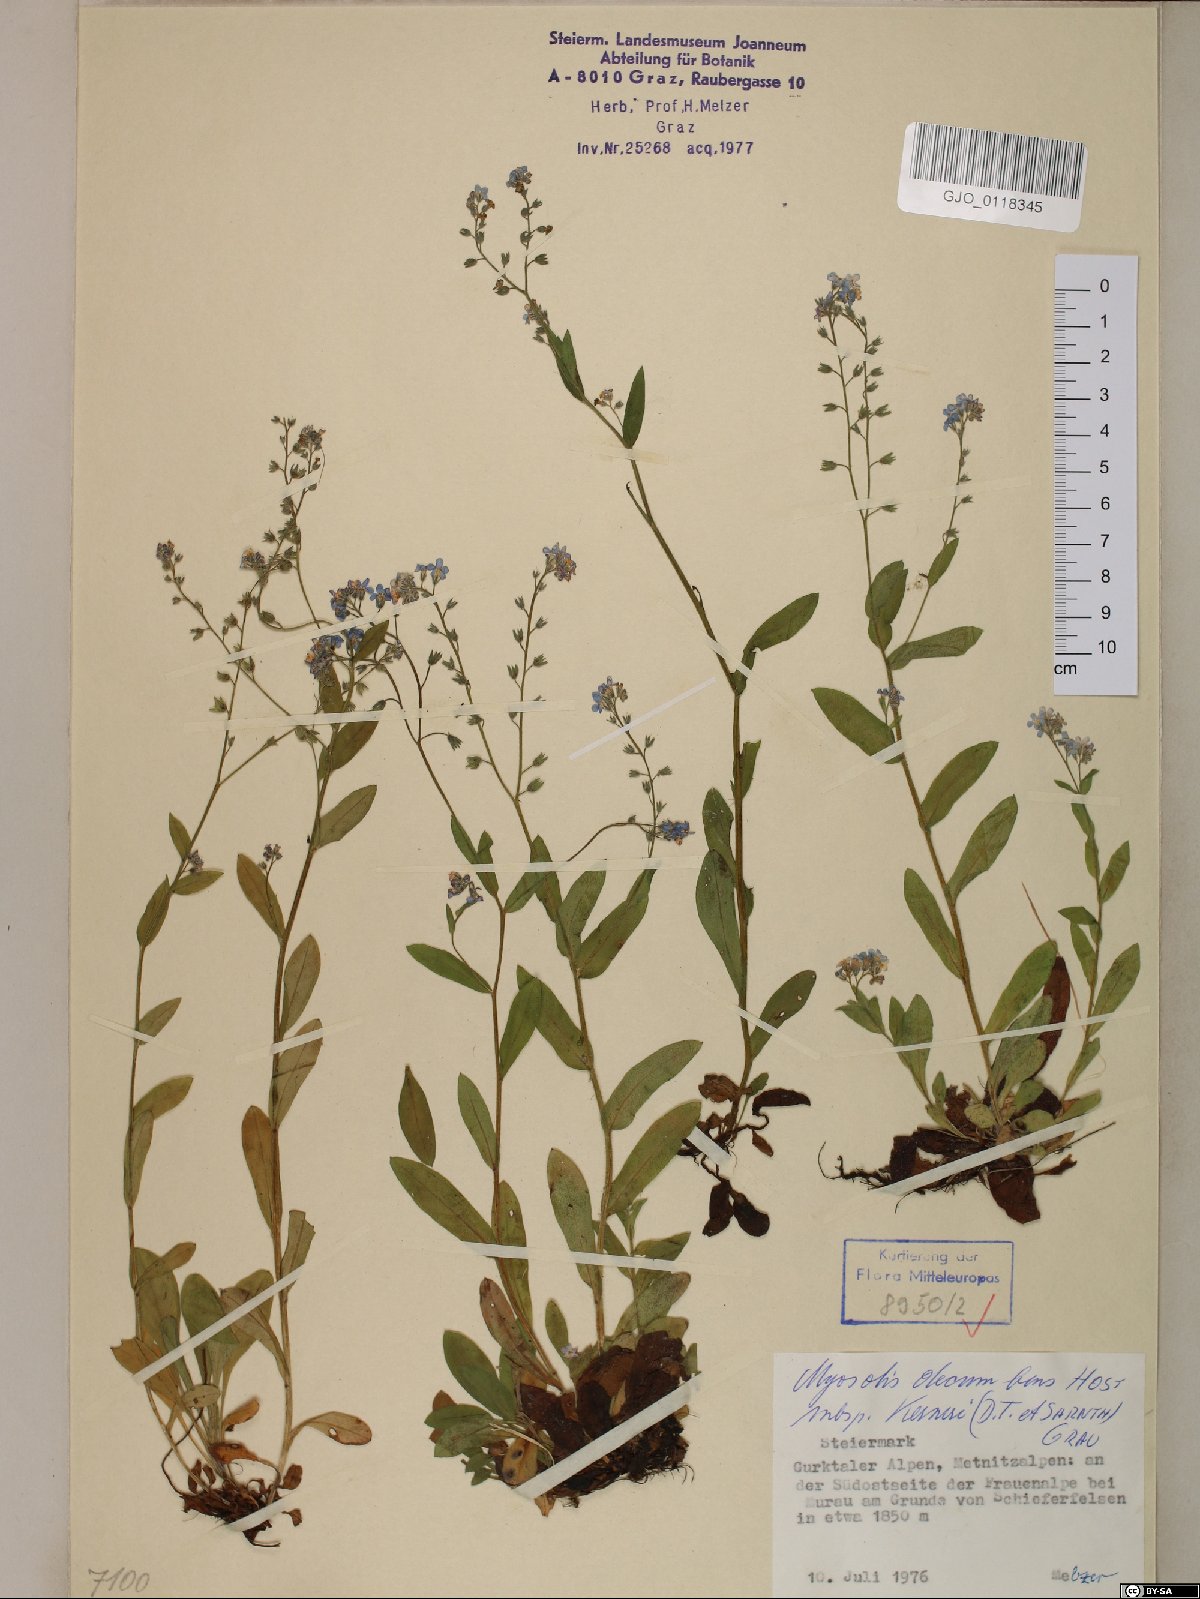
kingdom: Plantae
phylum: Tracheophyta
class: Magnoliopsida
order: Boraginales
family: Boraginaceae
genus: Myosotis
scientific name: Myosotis decumbens
